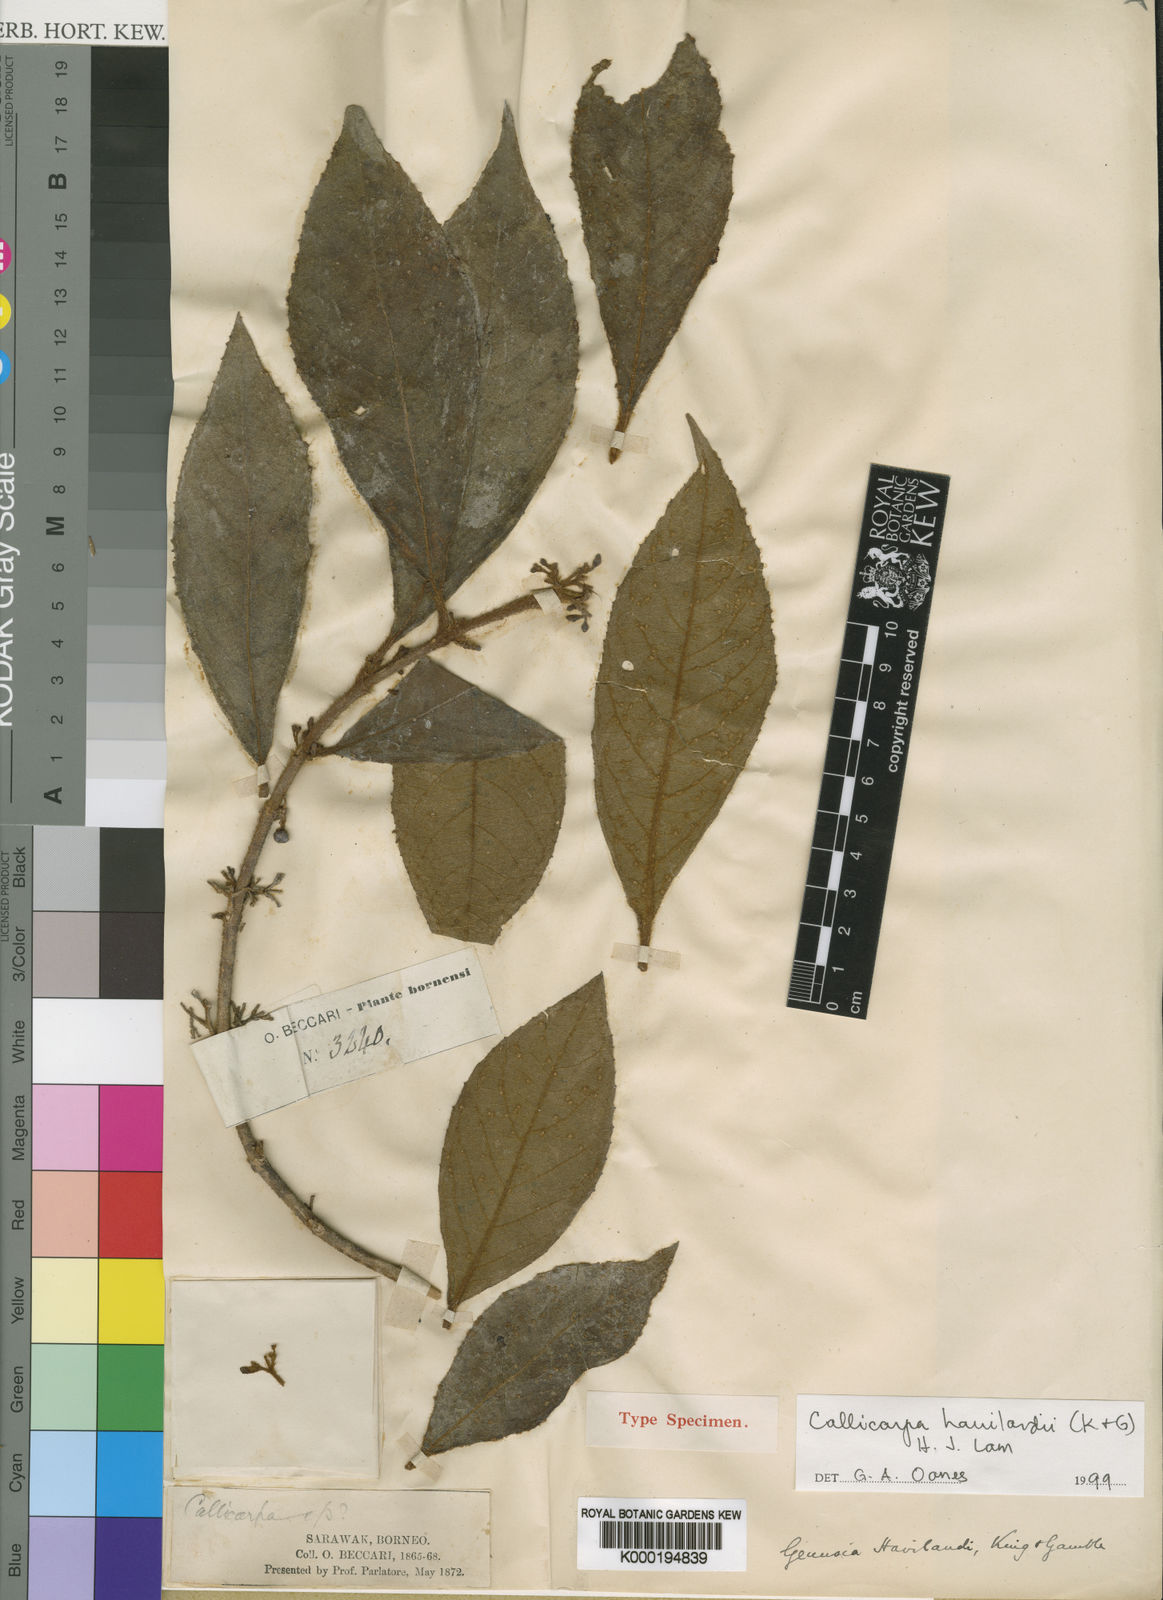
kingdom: Plantae
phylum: Tracheophyta
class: Magnoliopsida
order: Lamiales
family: Lamiaceae
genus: Callicarpa
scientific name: Callicarpa havilandii
